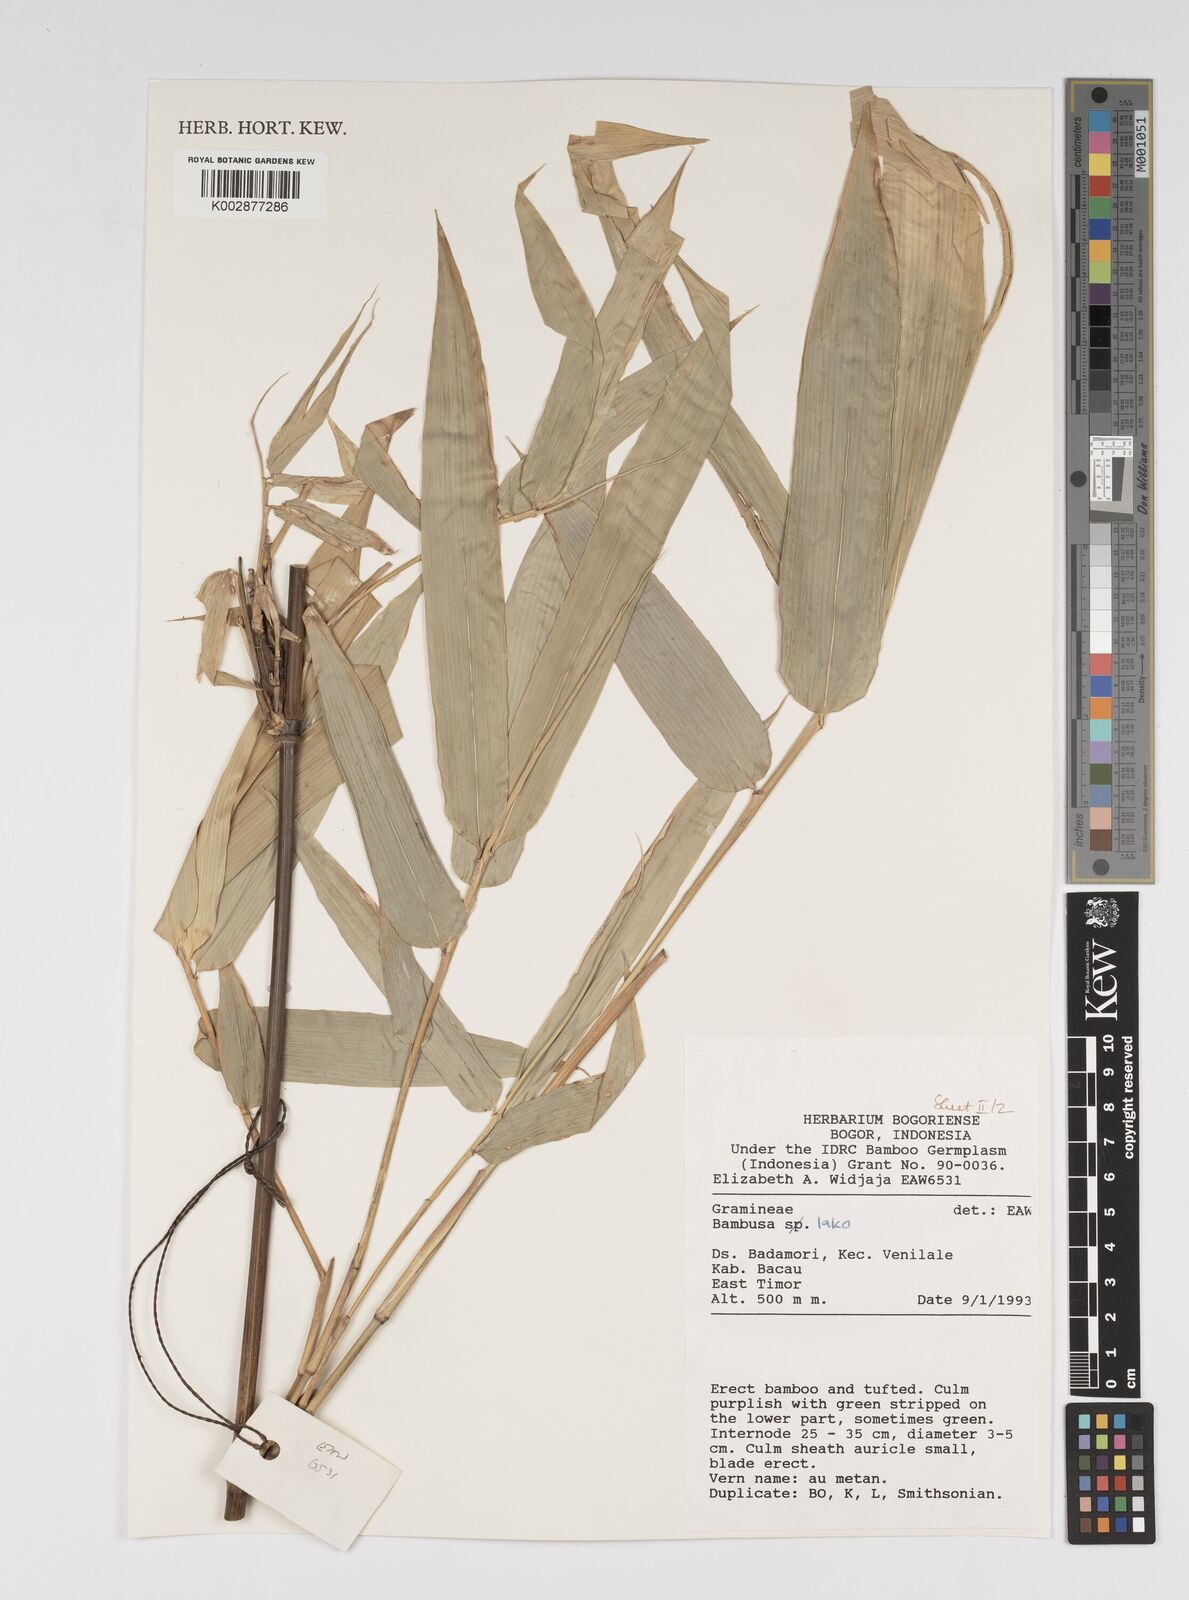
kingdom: Plantae
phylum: Tracheophyta
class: Liliopsida
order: Poales
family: Poaceae
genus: Bambusa
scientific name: Bambusa lako
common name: Timor black bamboo
